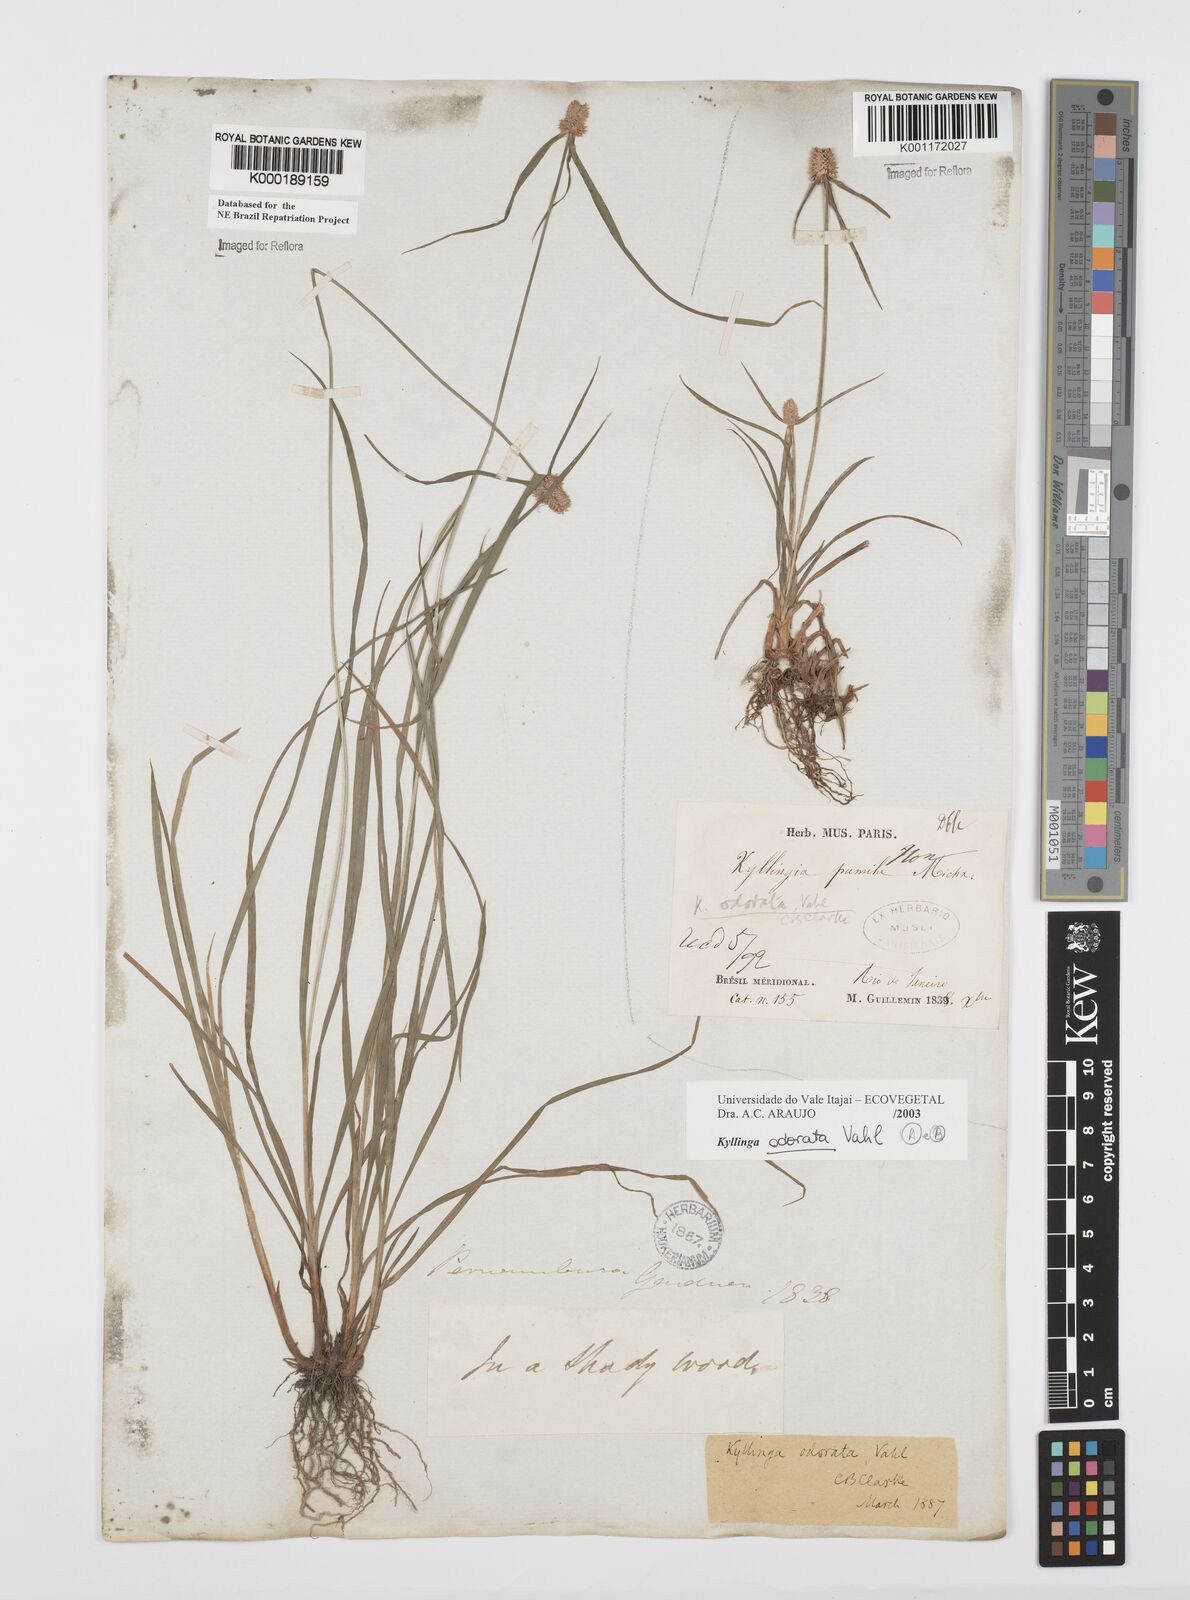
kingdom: Plantae
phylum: Tracheophyta
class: Liliopsida
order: Poales
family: Cyperaceae
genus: Cyperus
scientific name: Cyperus
